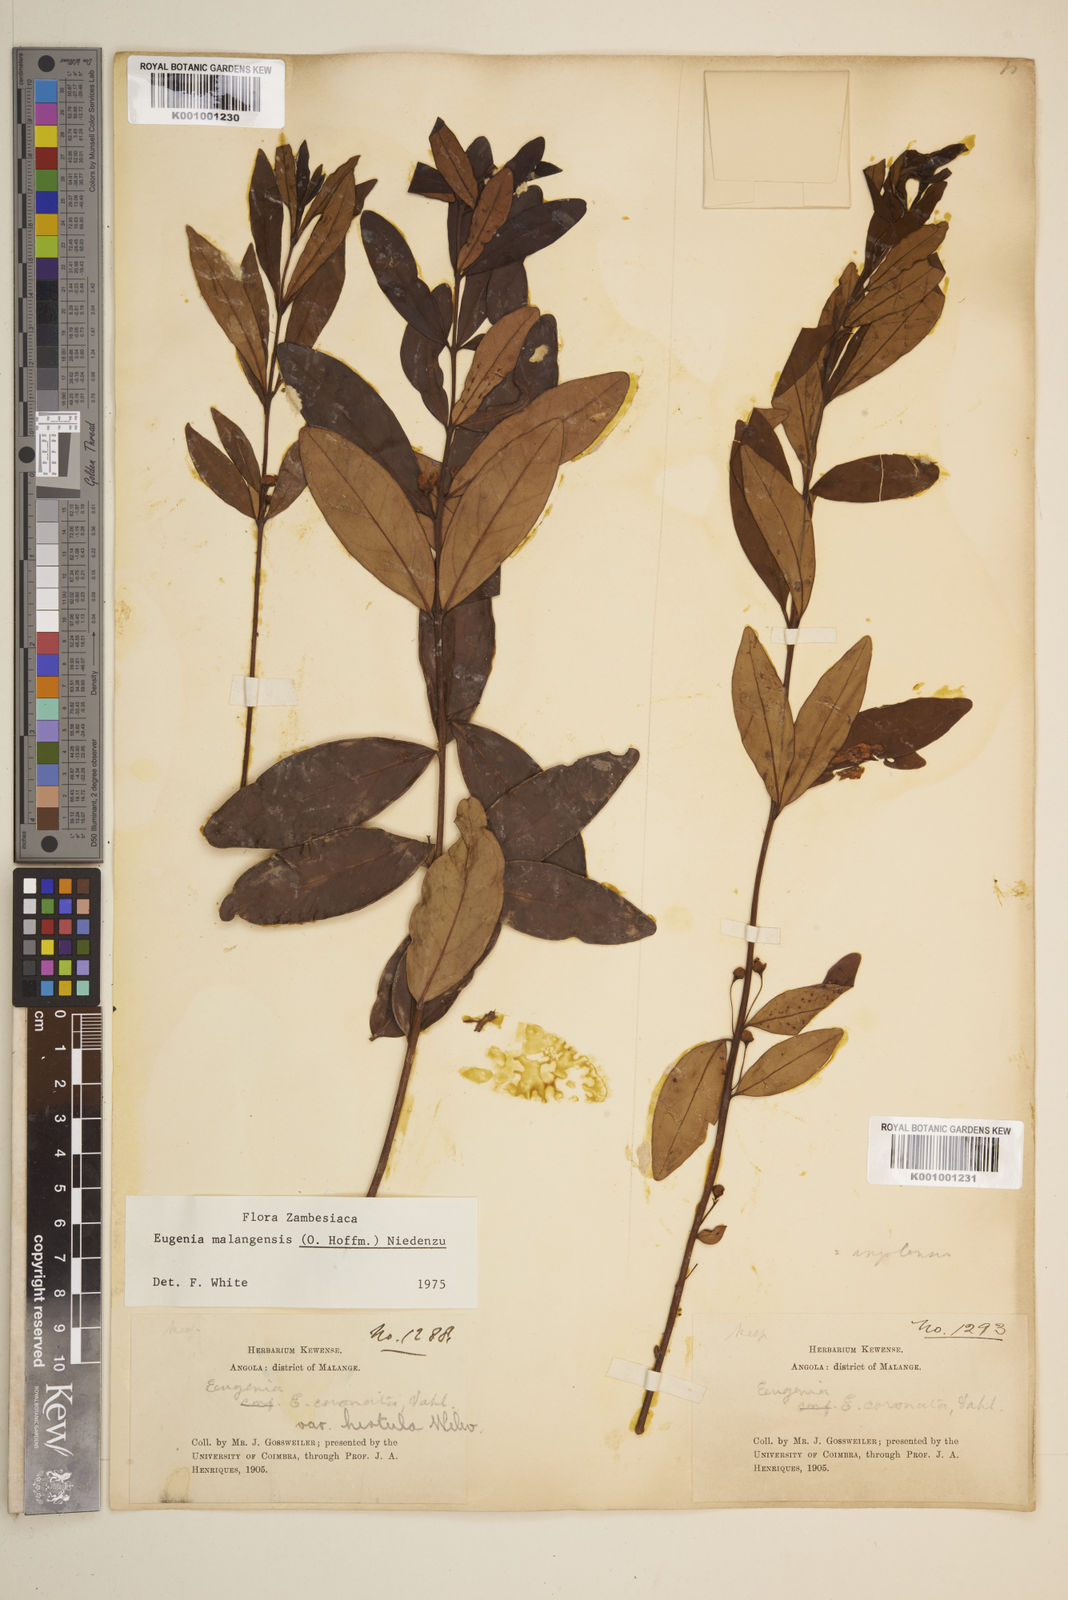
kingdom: Plantae
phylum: Tracheophyta
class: Magnoliopsida
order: Myrtales
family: Myrtaceae
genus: Eugenia
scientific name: Eugenia malangensis
